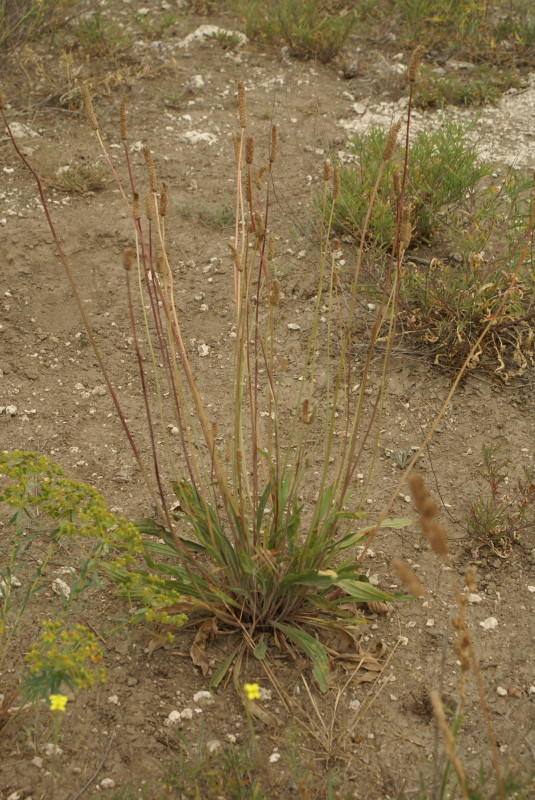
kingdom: Plantae
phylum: Tracheophyta
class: Magnoliopsida
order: Lamiales
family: Plantaginaceae
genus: Plantago
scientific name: Plantago lanceolata
